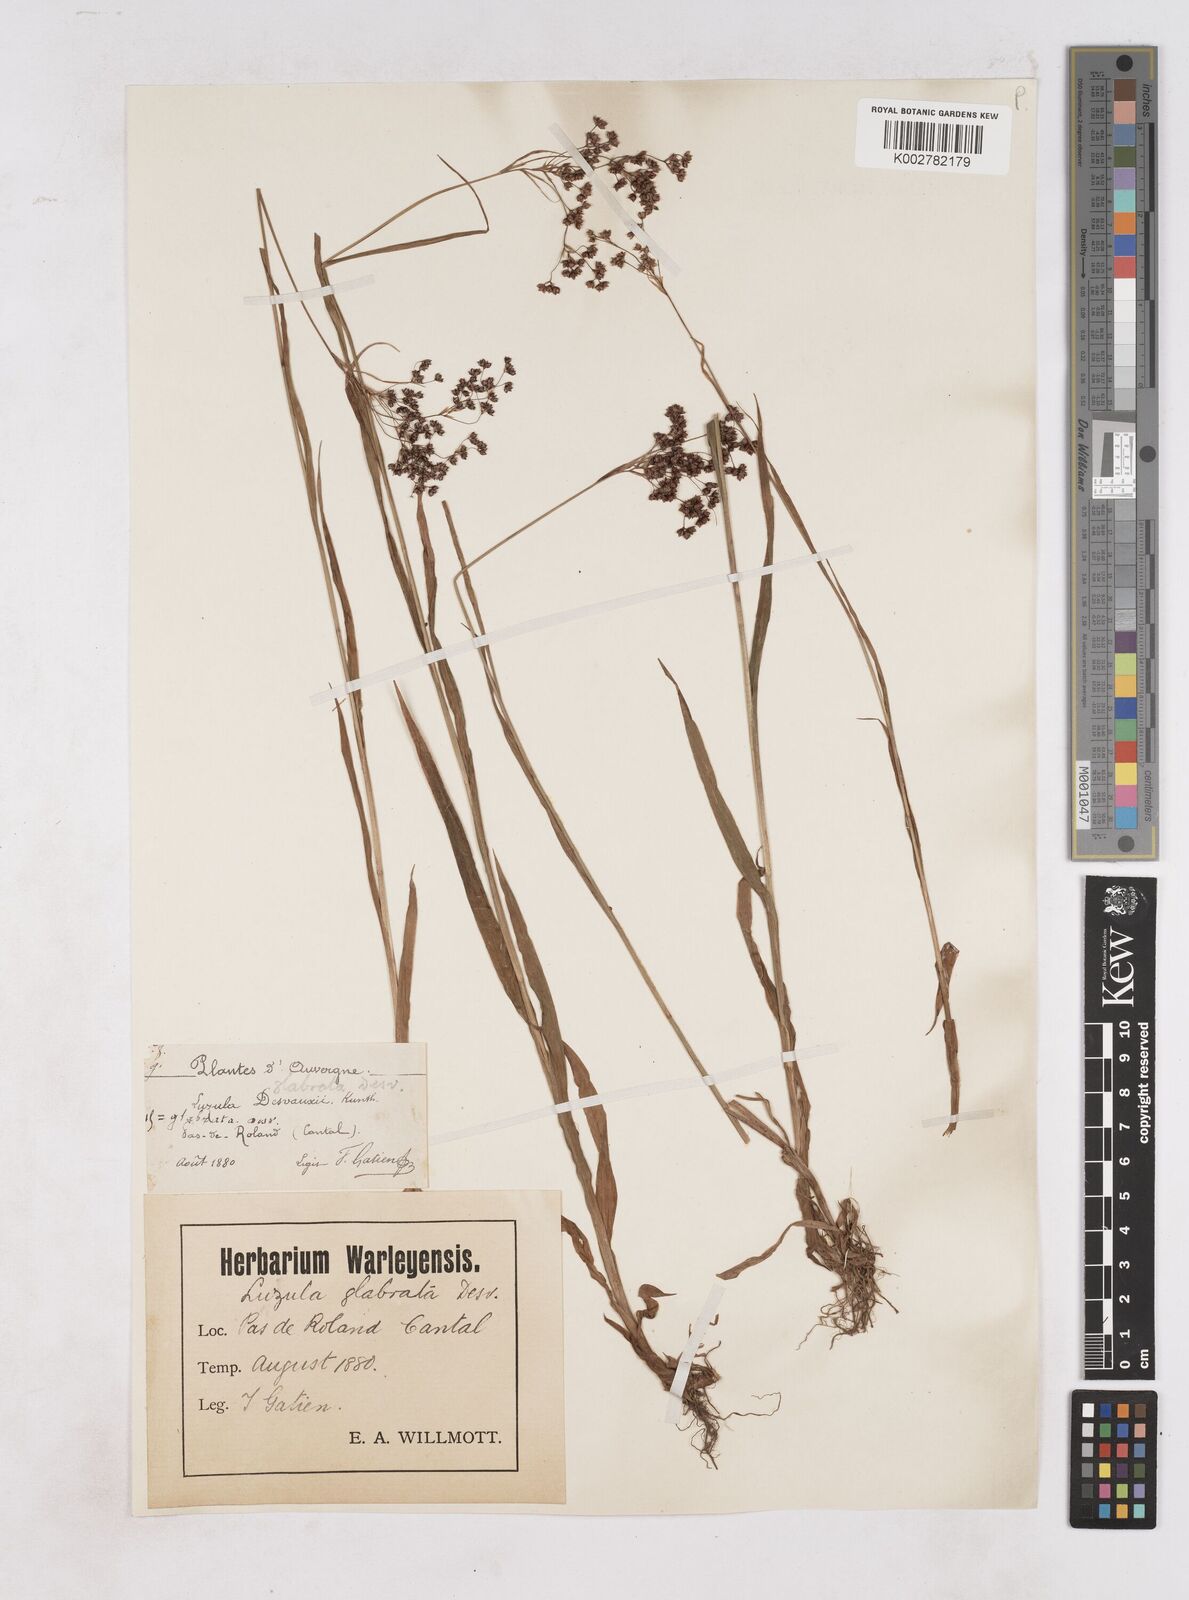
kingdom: Plantae
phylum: Tracheophyta
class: Liliopsida
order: Poales
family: Juncaceae
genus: Luzula
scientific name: Luzula glabrata
